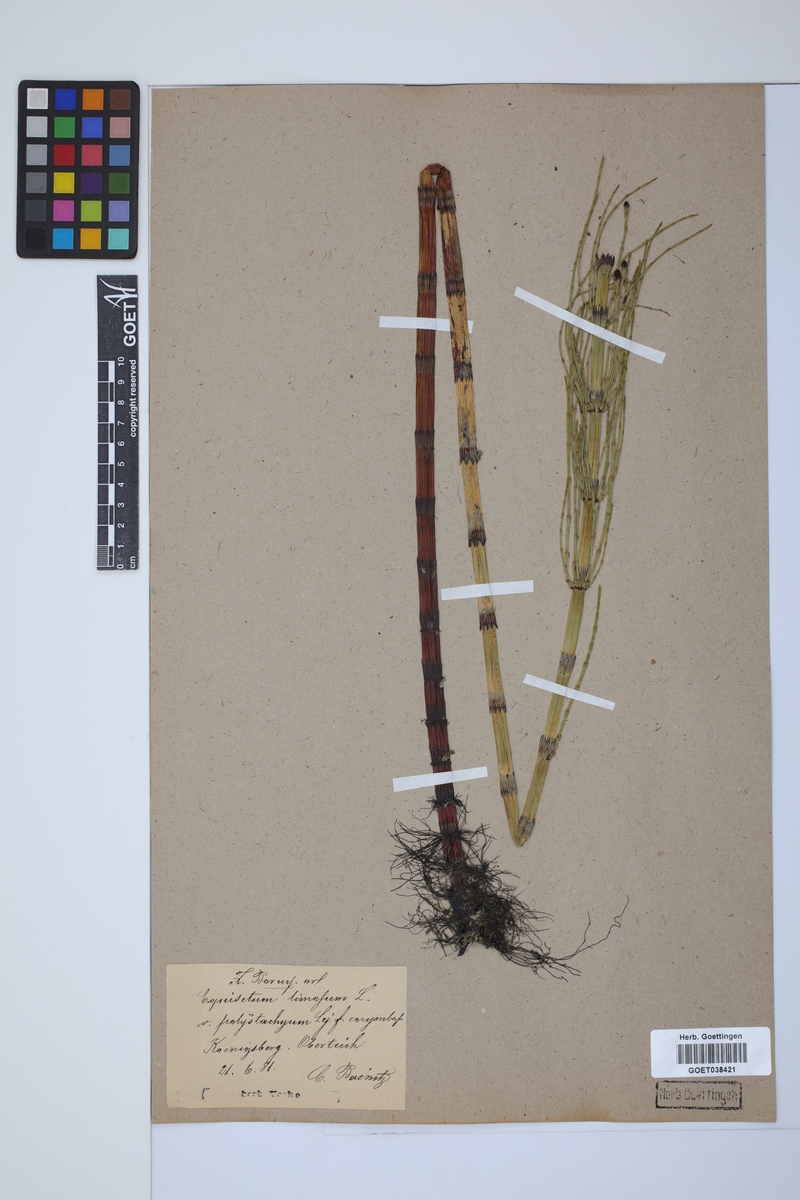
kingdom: Plantae
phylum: Tracheophyta
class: Polypodiopsida
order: Equisetales
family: Equisetaceae
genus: Equisetum
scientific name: Equisetum fluviatile
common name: Water horsetail
